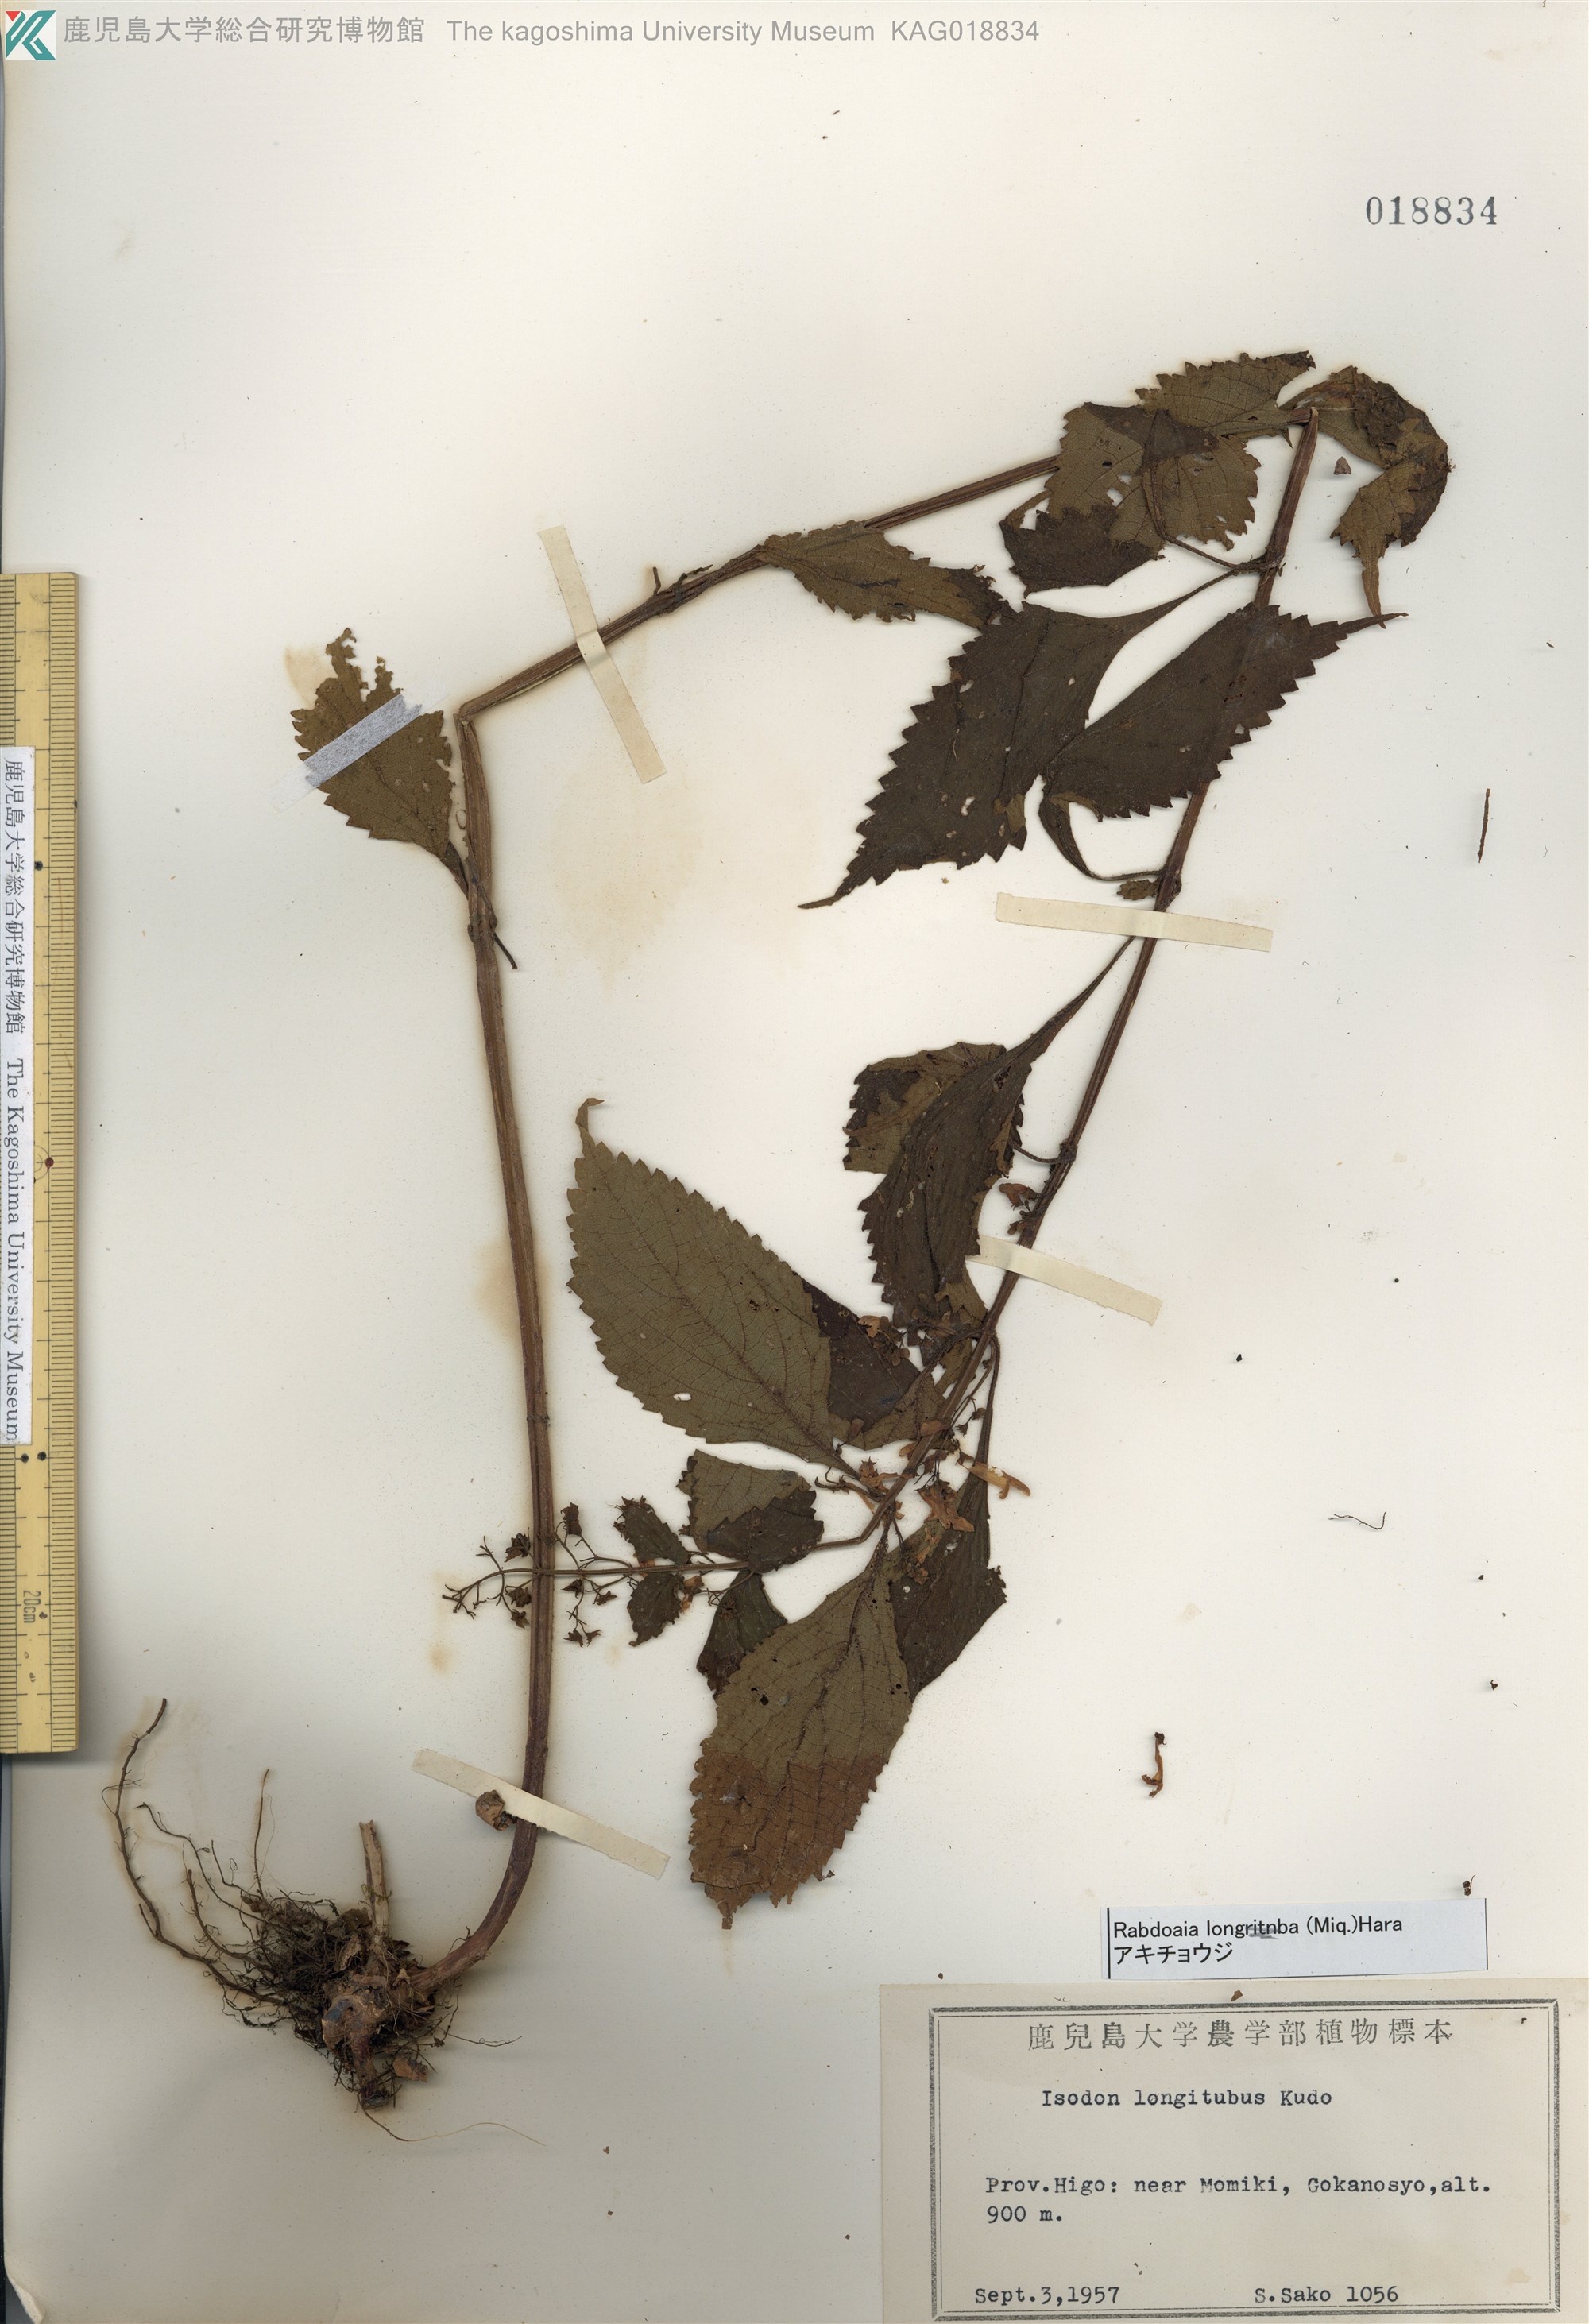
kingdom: Plantae
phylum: Tracheophyta
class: Magnoliopsida
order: Lamiales
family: Lamiaceae
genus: Isodon
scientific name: Isodon longitubus
